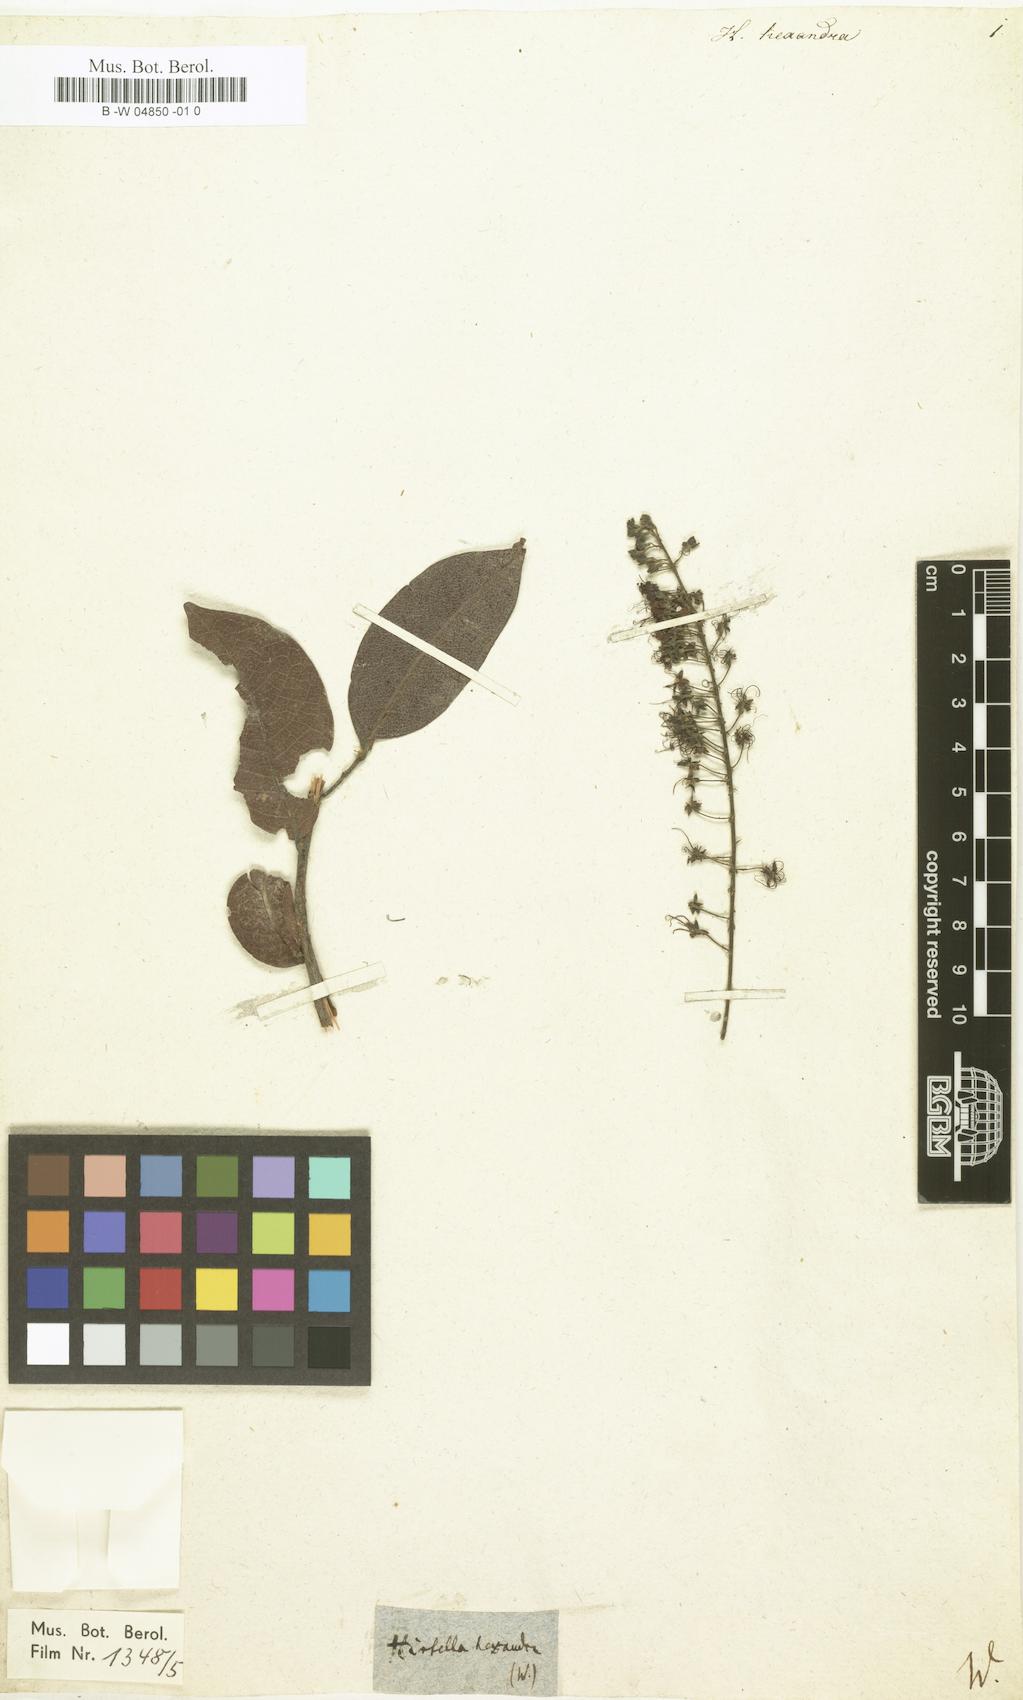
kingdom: Plantae
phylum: Tracheophyta
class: Magnoliopsida
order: Malpighiales
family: Chrysobalanaceae
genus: Hirtella
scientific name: Hirtella racemosa
